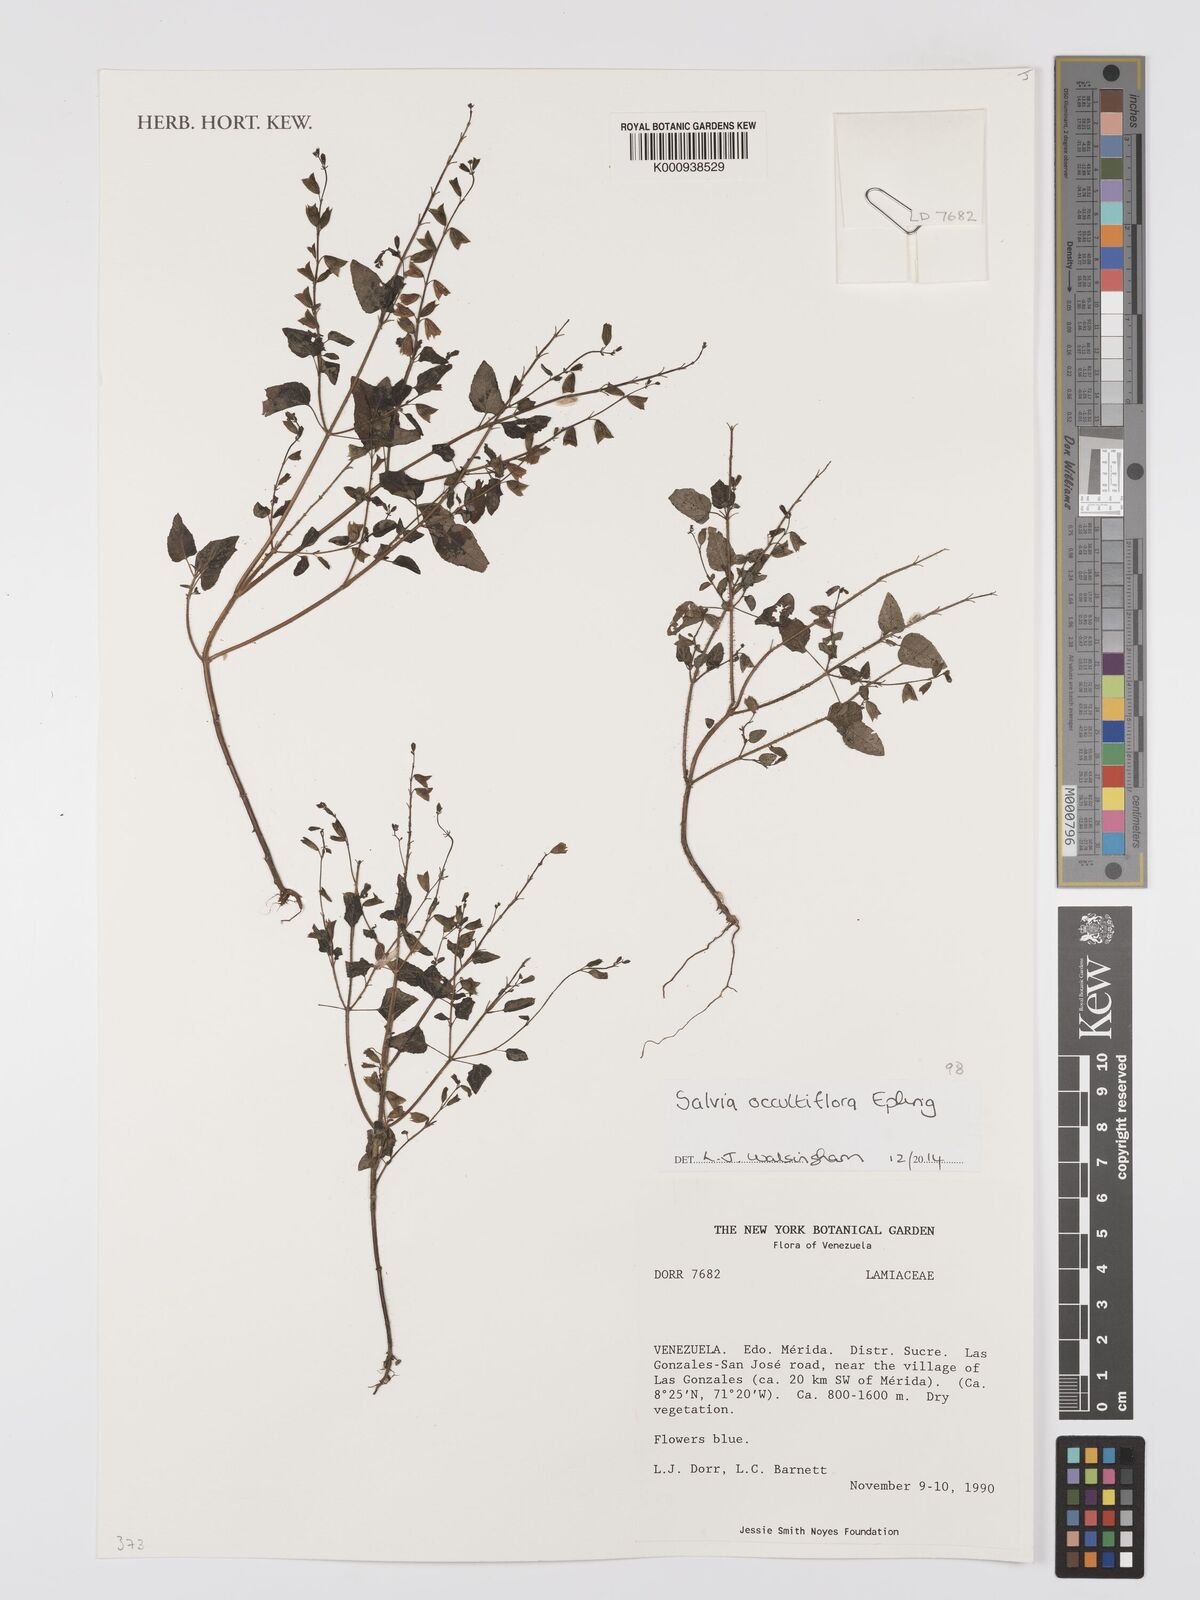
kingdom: Plantae
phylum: Tracheophyta
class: Magnoliopsida
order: Lamiales
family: Lamiaceae
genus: Salvia
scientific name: Salvia occultiflora
